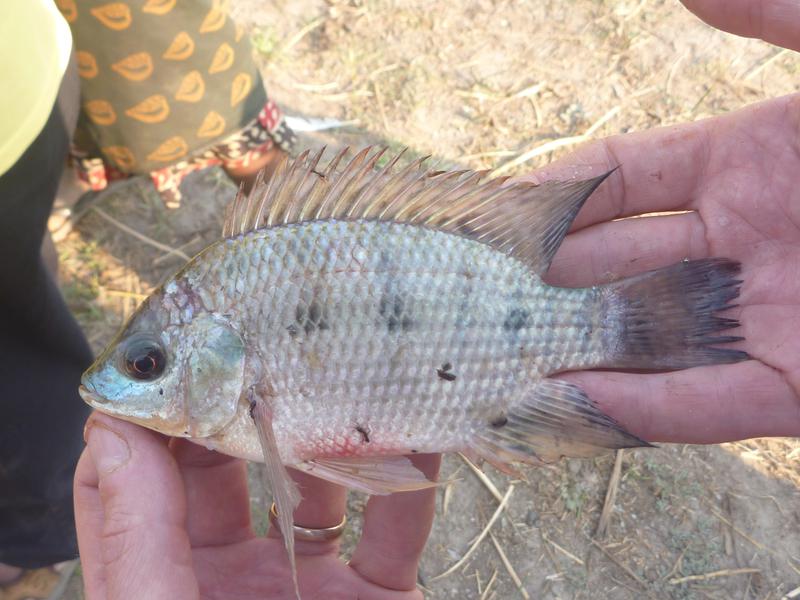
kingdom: Animalia
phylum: Chordata
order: Perciformes
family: Cichlidae
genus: Oreochromis
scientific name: Oreochromis upembae
